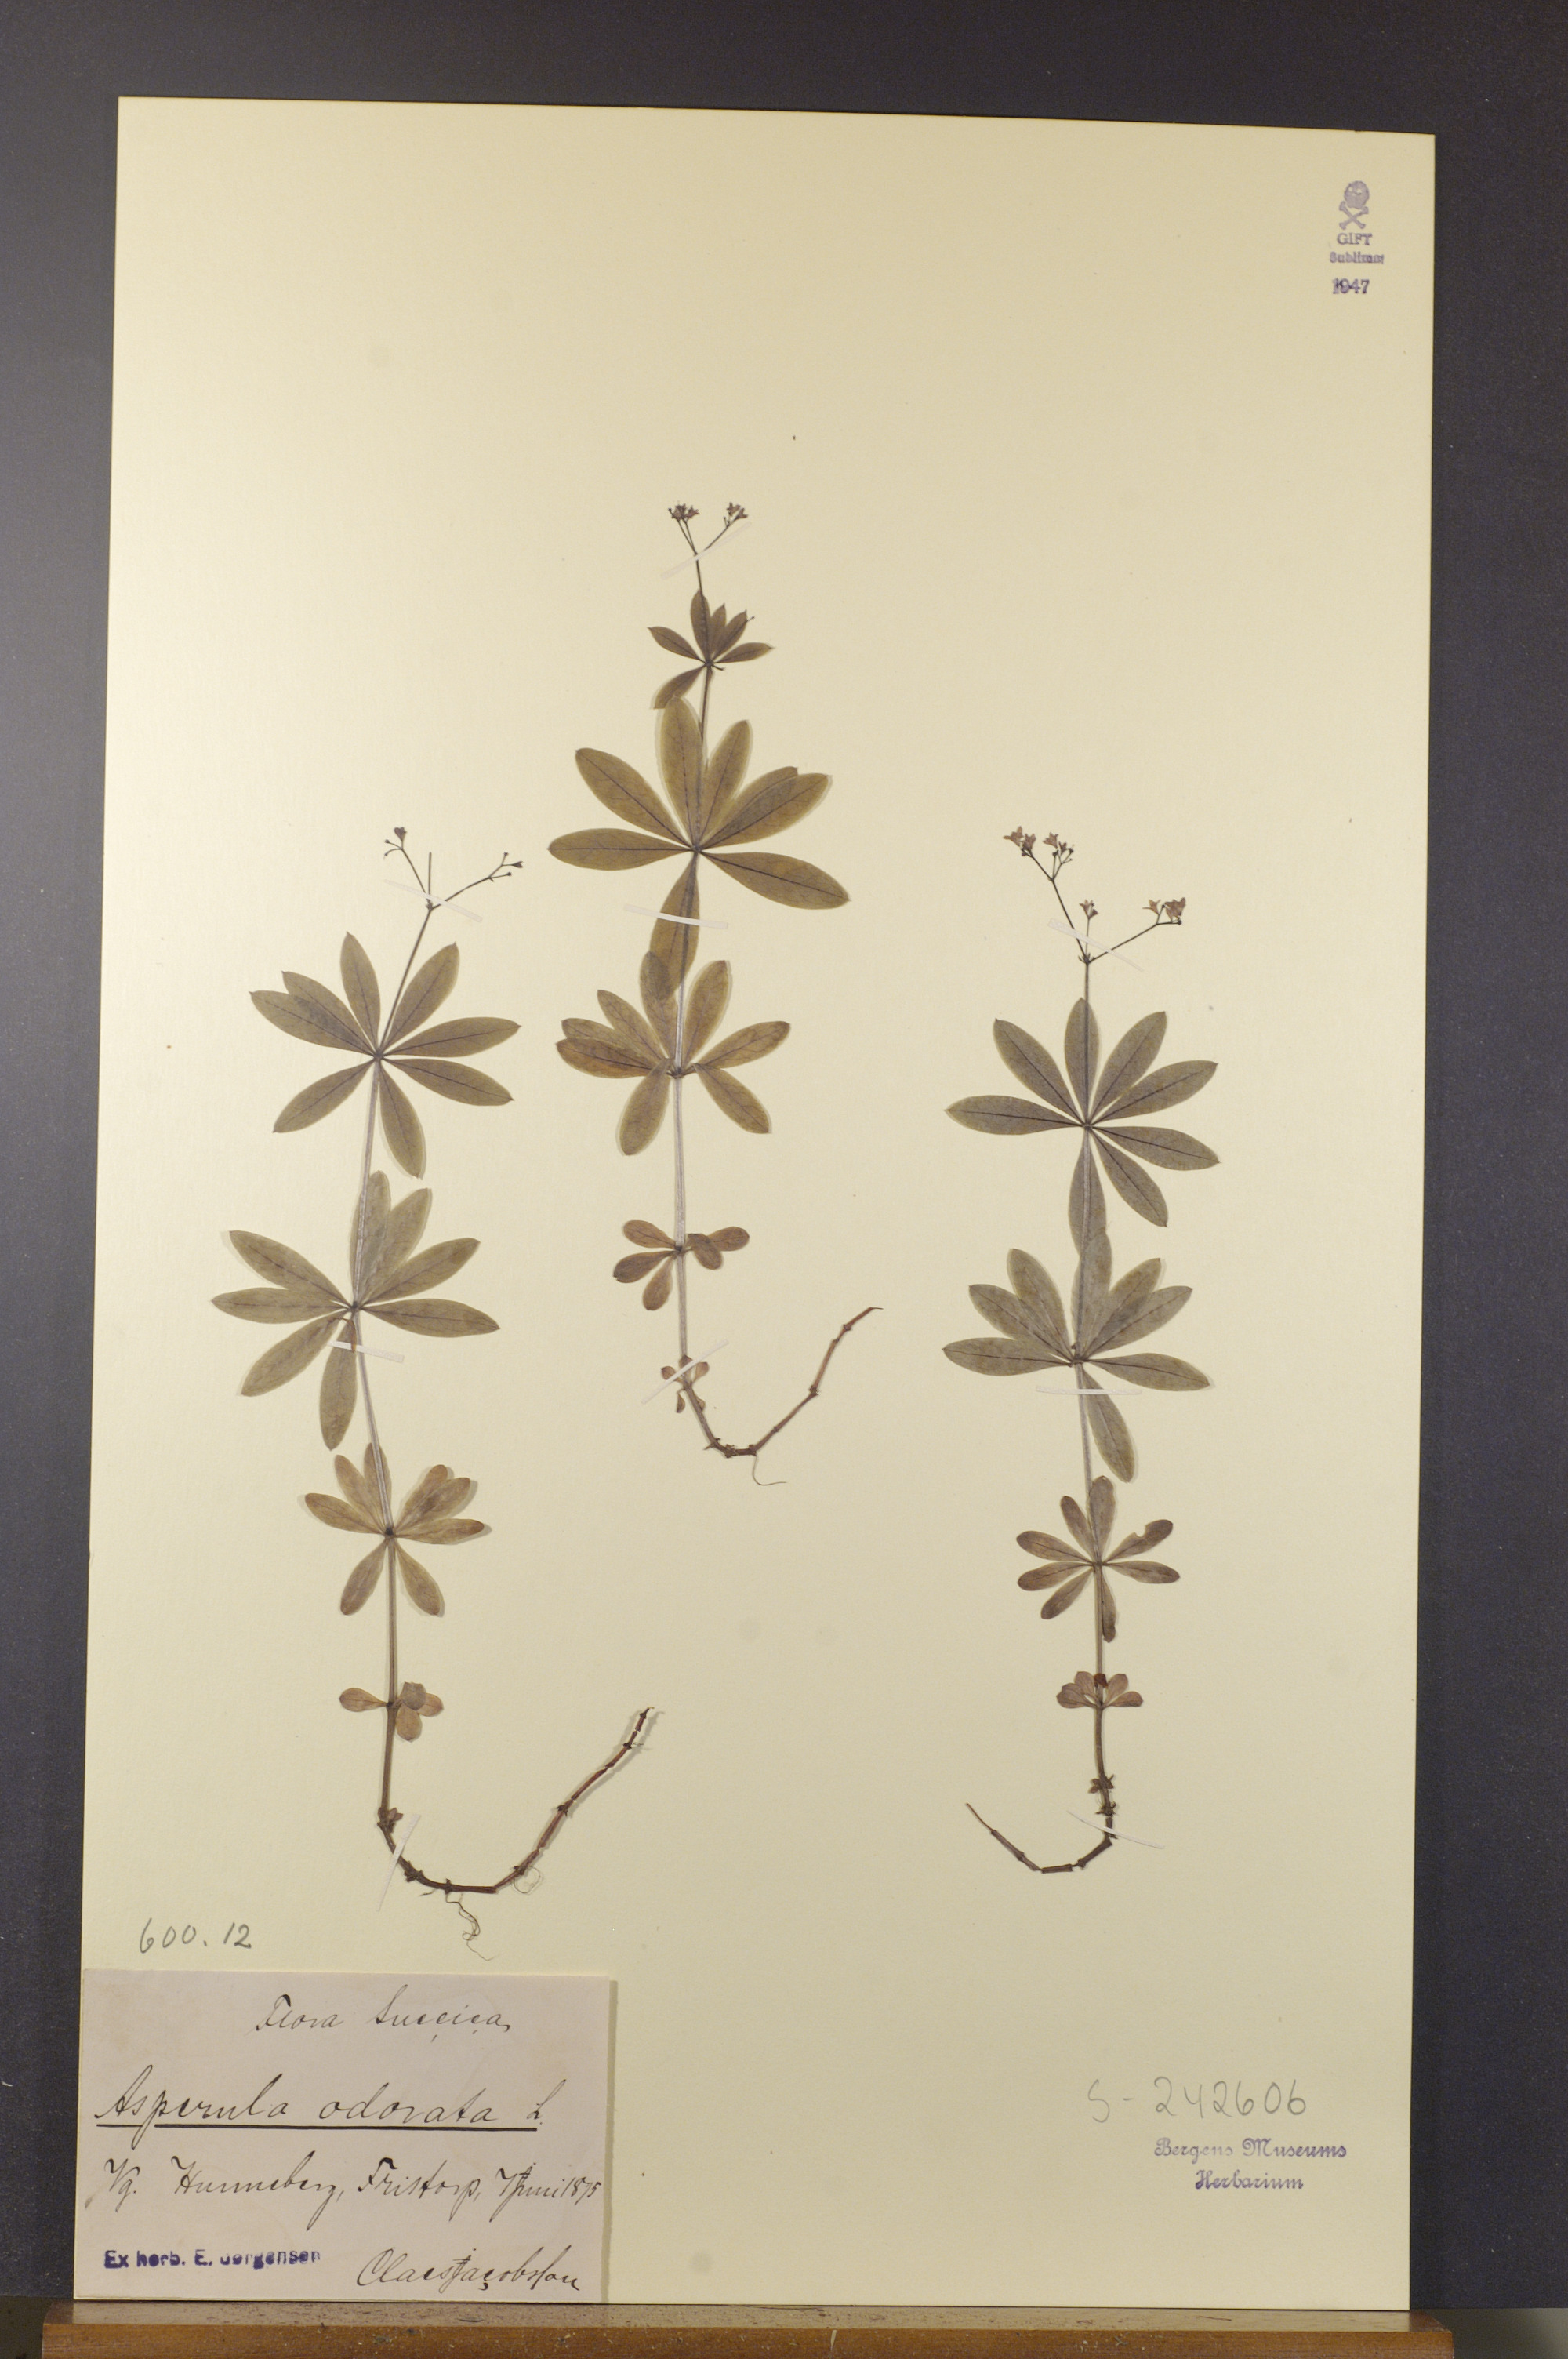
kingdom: Plantae
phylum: Tracheophyta
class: Magnoliopsida
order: Gentianales
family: Rubiaceae
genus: Galium
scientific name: Galium odoratum
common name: Sweet woodruff
